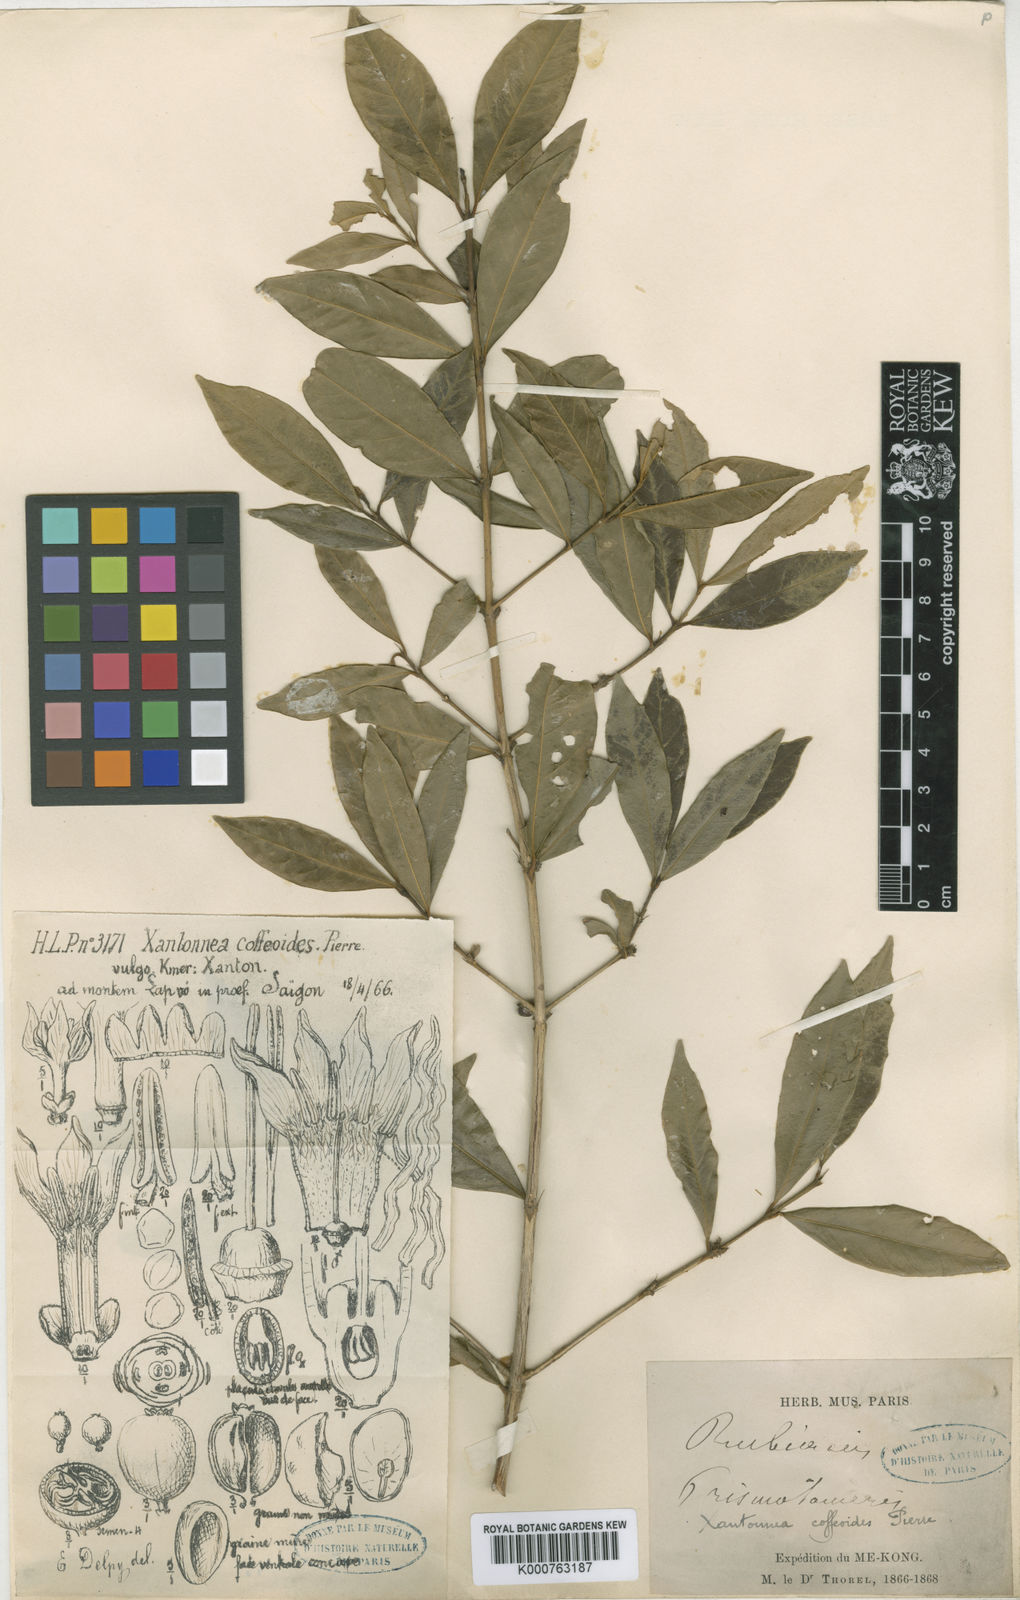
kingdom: Plantae
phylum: Tracheophyta
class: Magnoliopsida
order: Gentianales
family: Rubiaceae
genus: Discospermum
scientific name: Discospermum coffeoides
